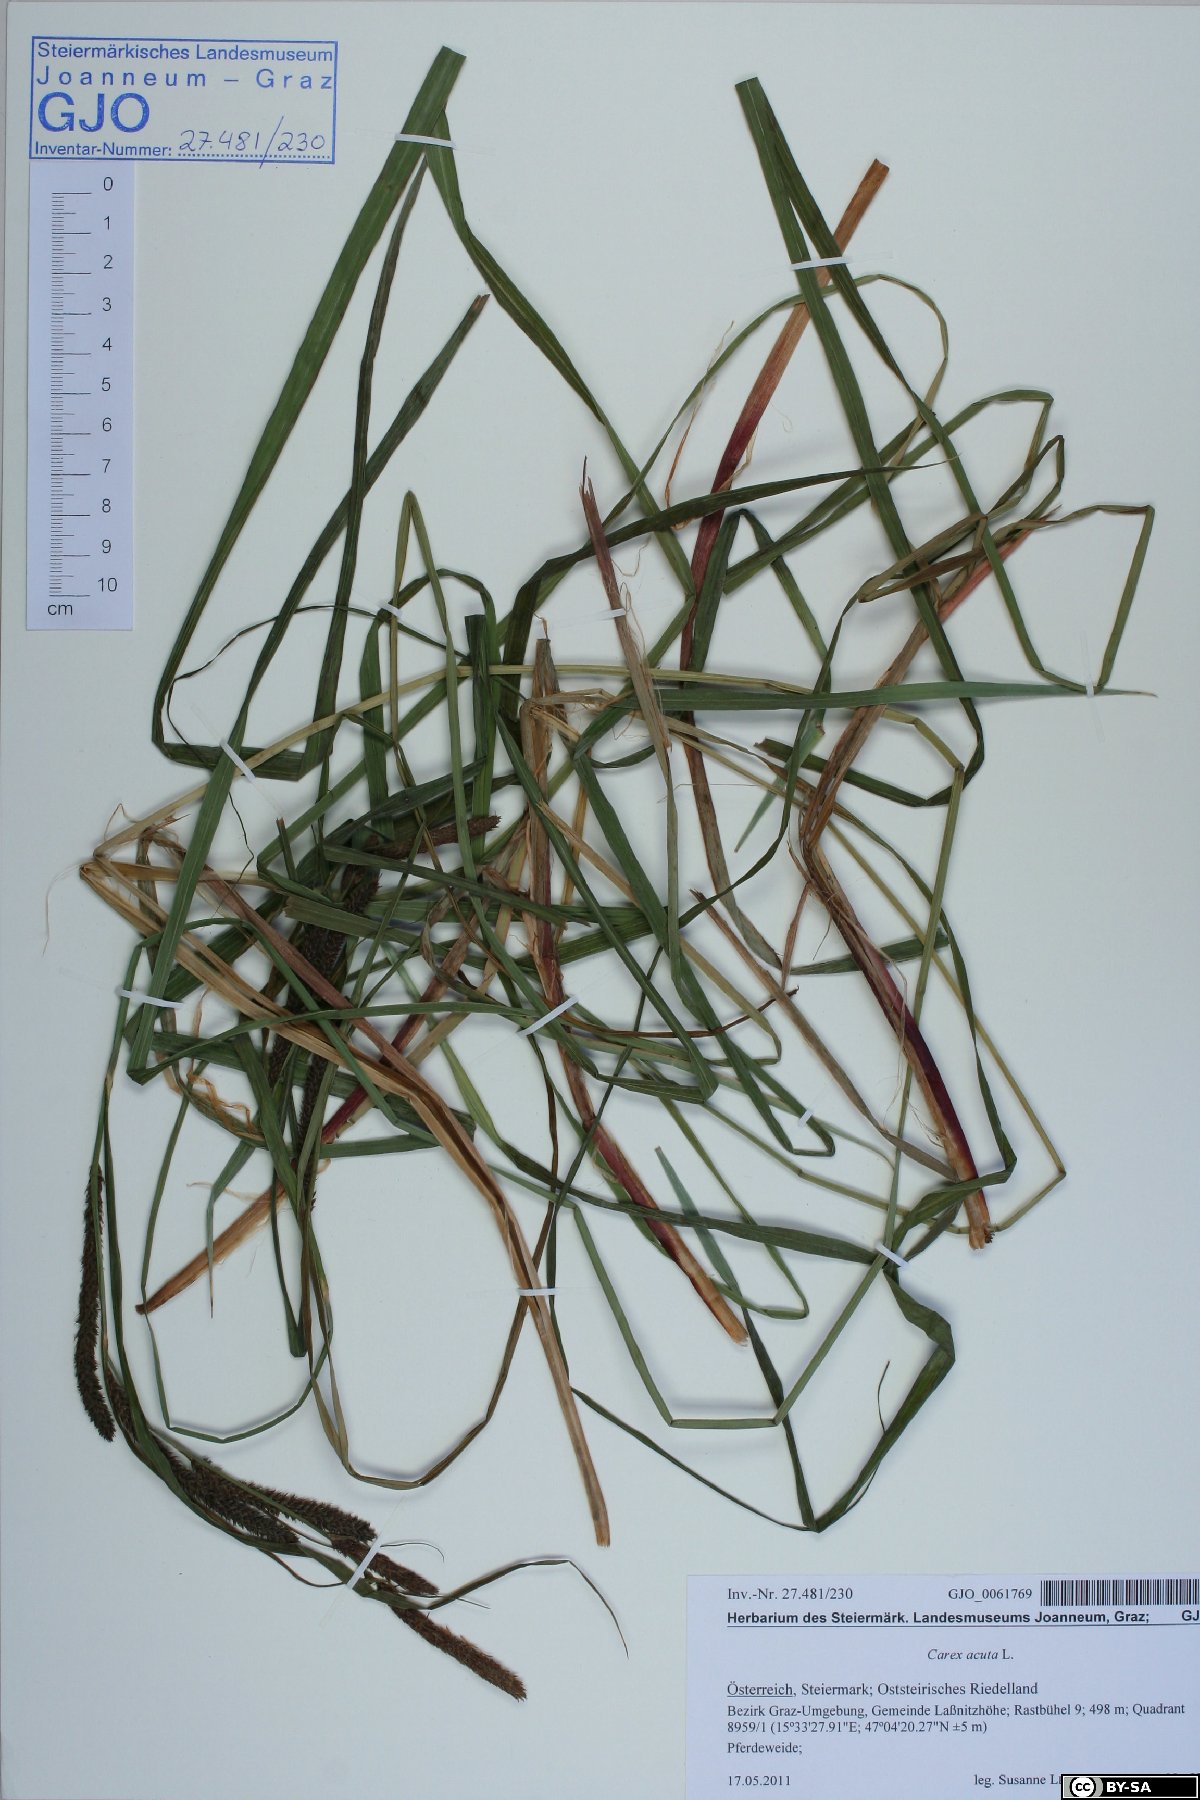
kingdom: Plantae
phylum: Tracheophyta
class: Liliopsida
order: Poales
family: Cyperaceae
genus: Carex
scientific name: Carex acuta
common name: Slender tufted-sedge
